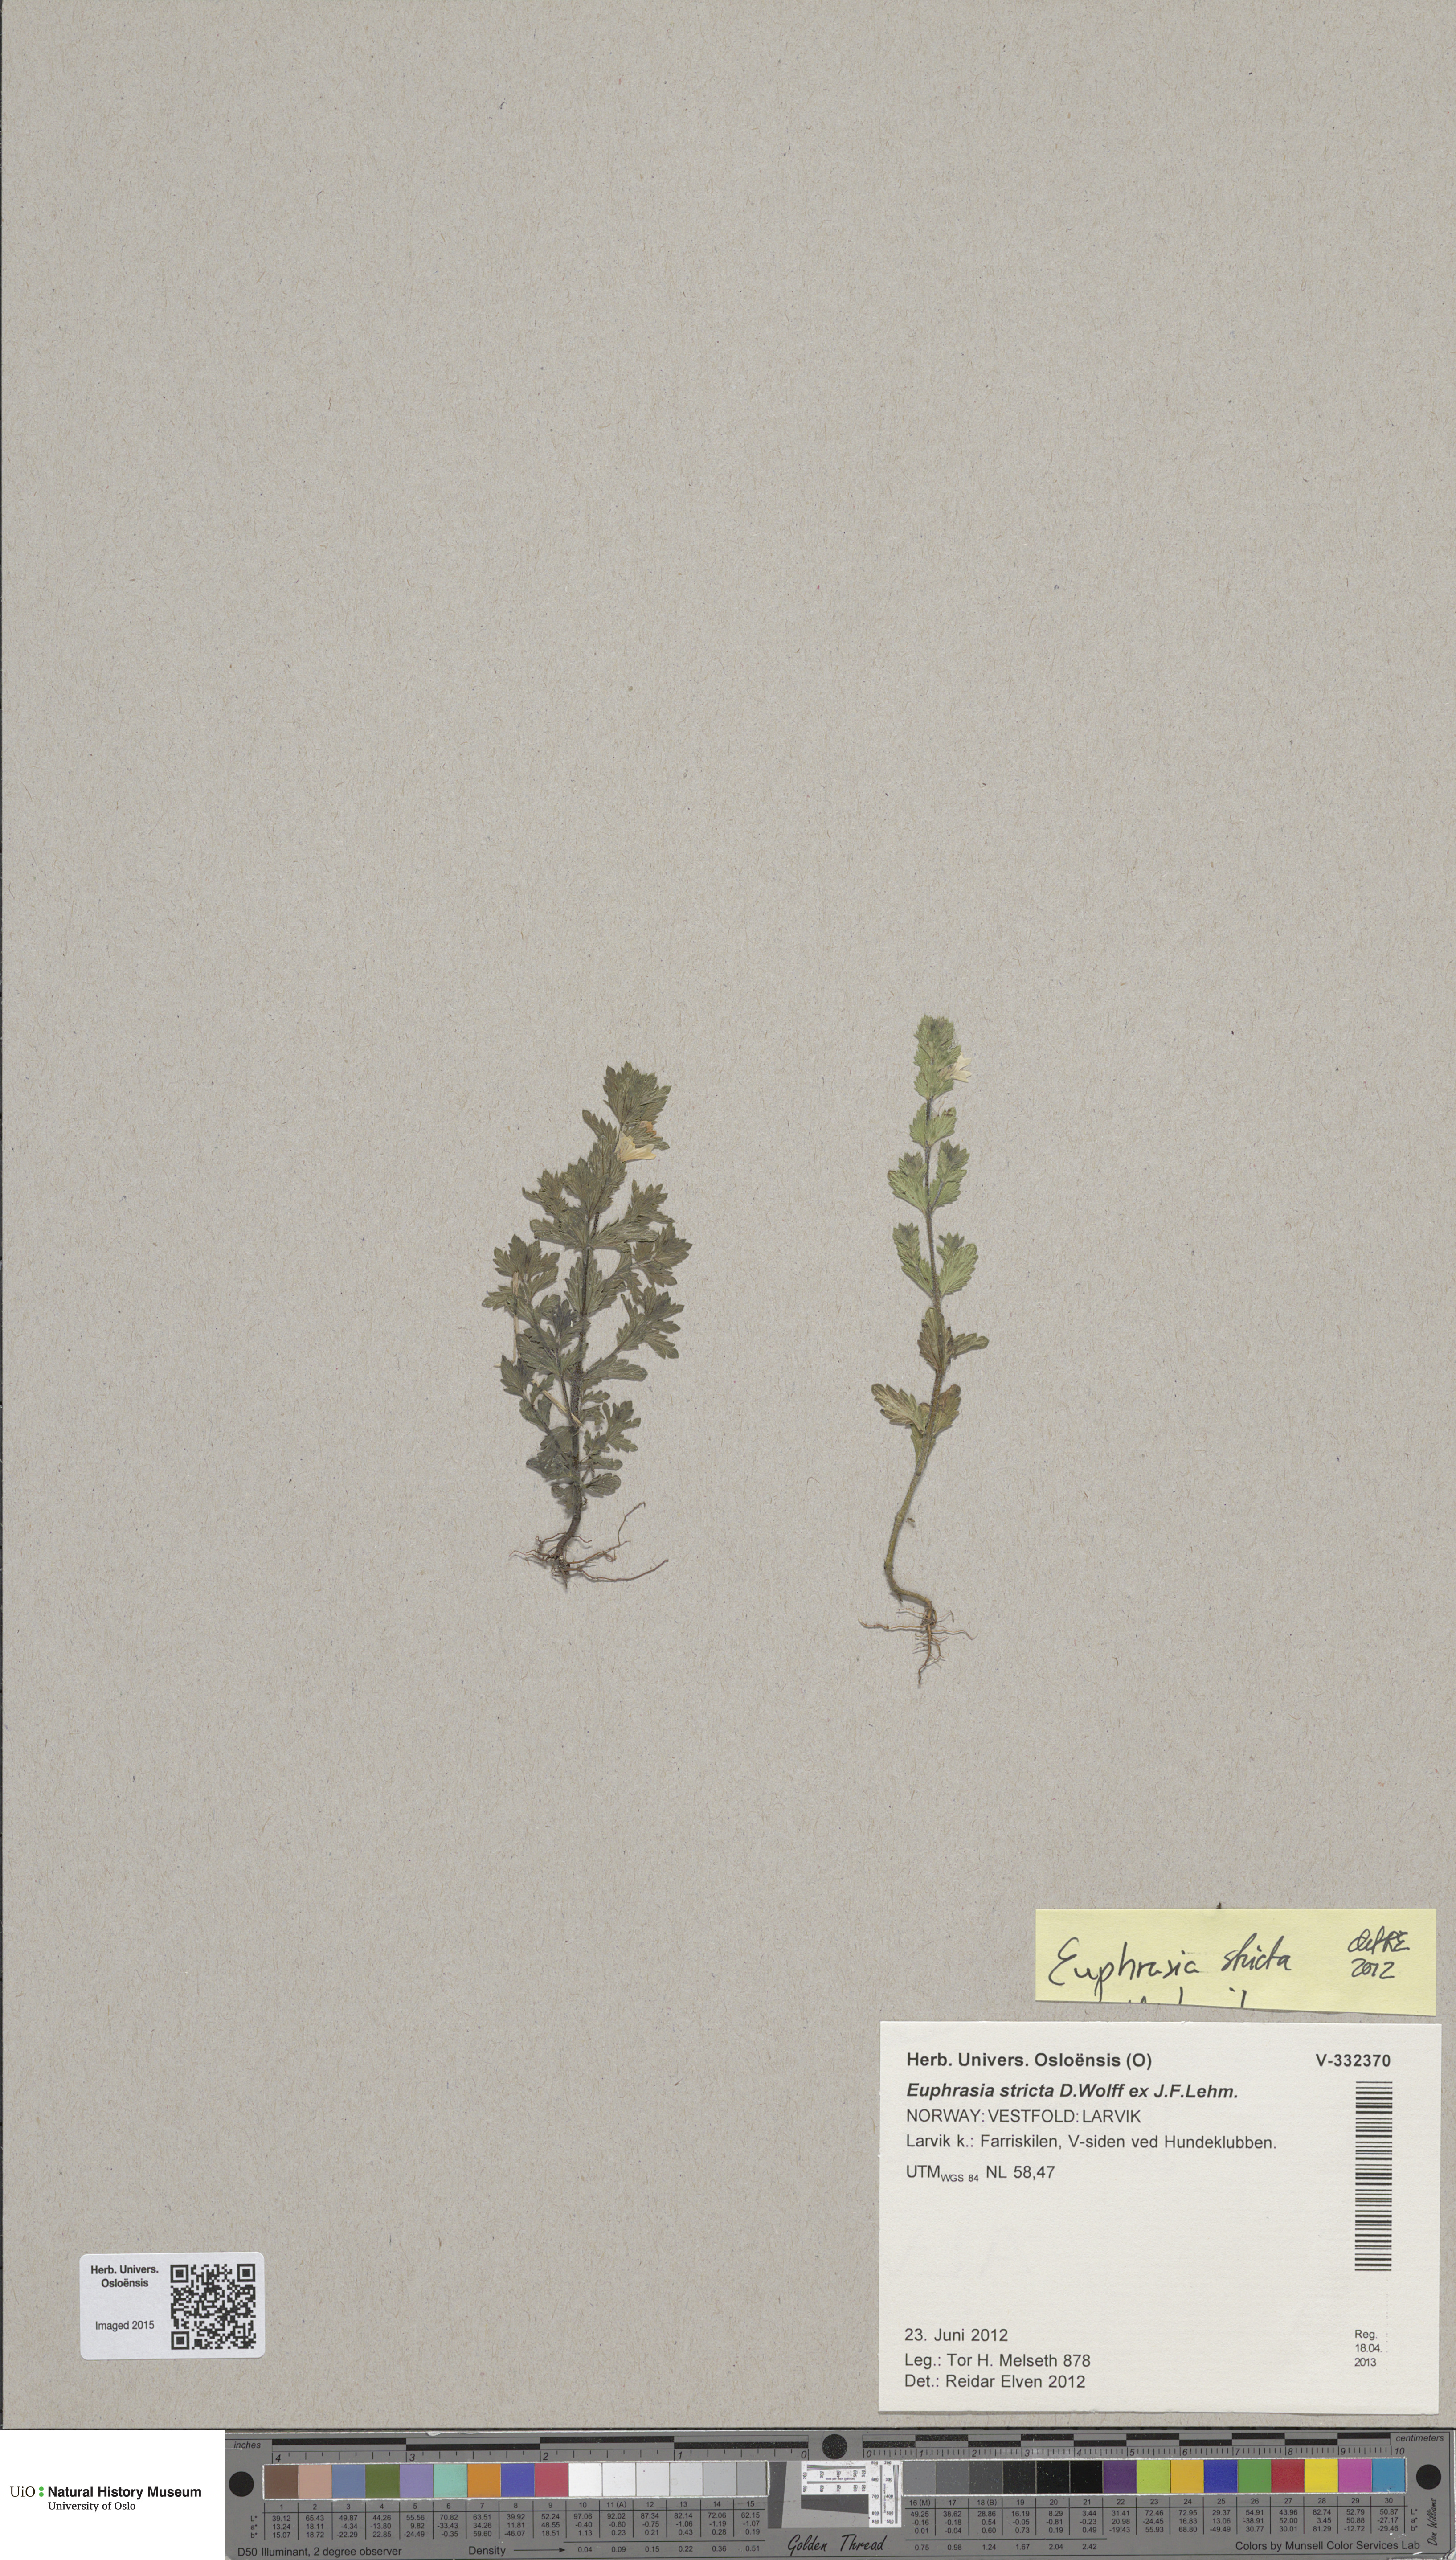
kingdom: Plantae
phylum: Tracheophyta
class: Magnoliopsida
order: Lamiales
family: Orobanchaceae
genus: Euphrasia
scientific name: Euphrasia stricta
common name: Drug eyebright
